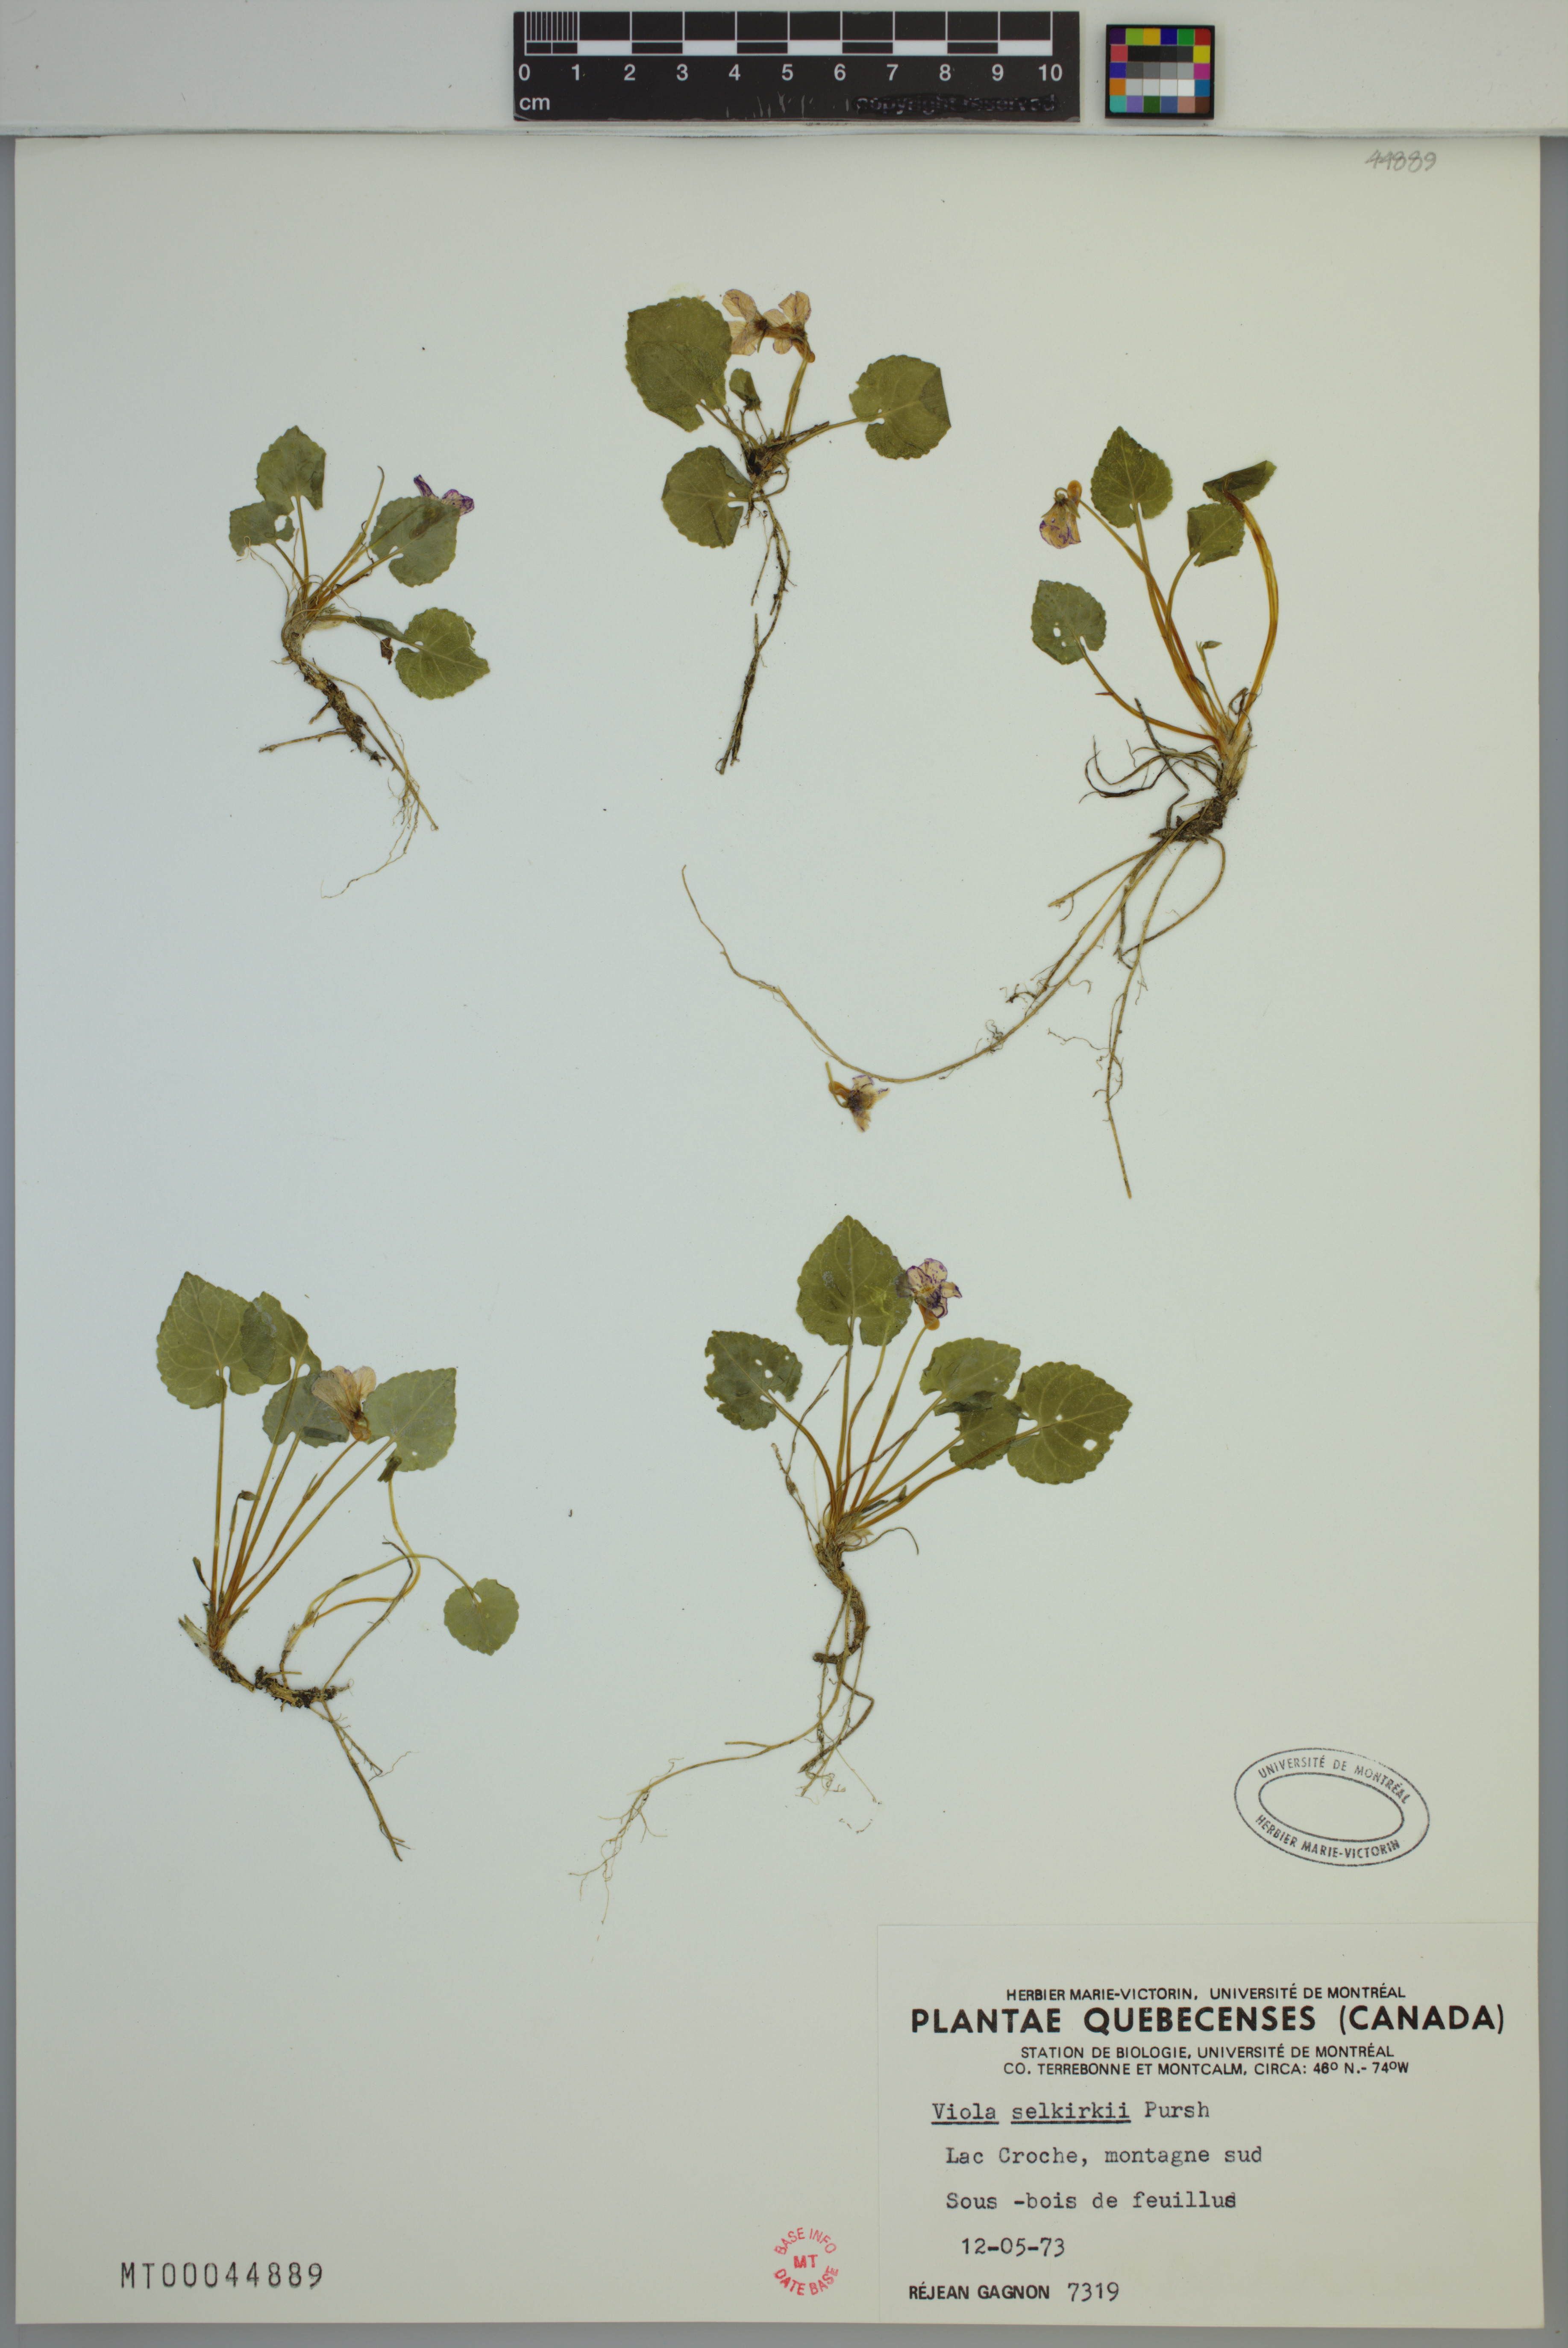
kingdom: Plantae
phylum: Tracheophyta
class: Magnoliopsida
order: Malpighiales
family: Violaceae
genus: Viola
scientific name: Viola selkirkii
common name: Selkirk's violet
